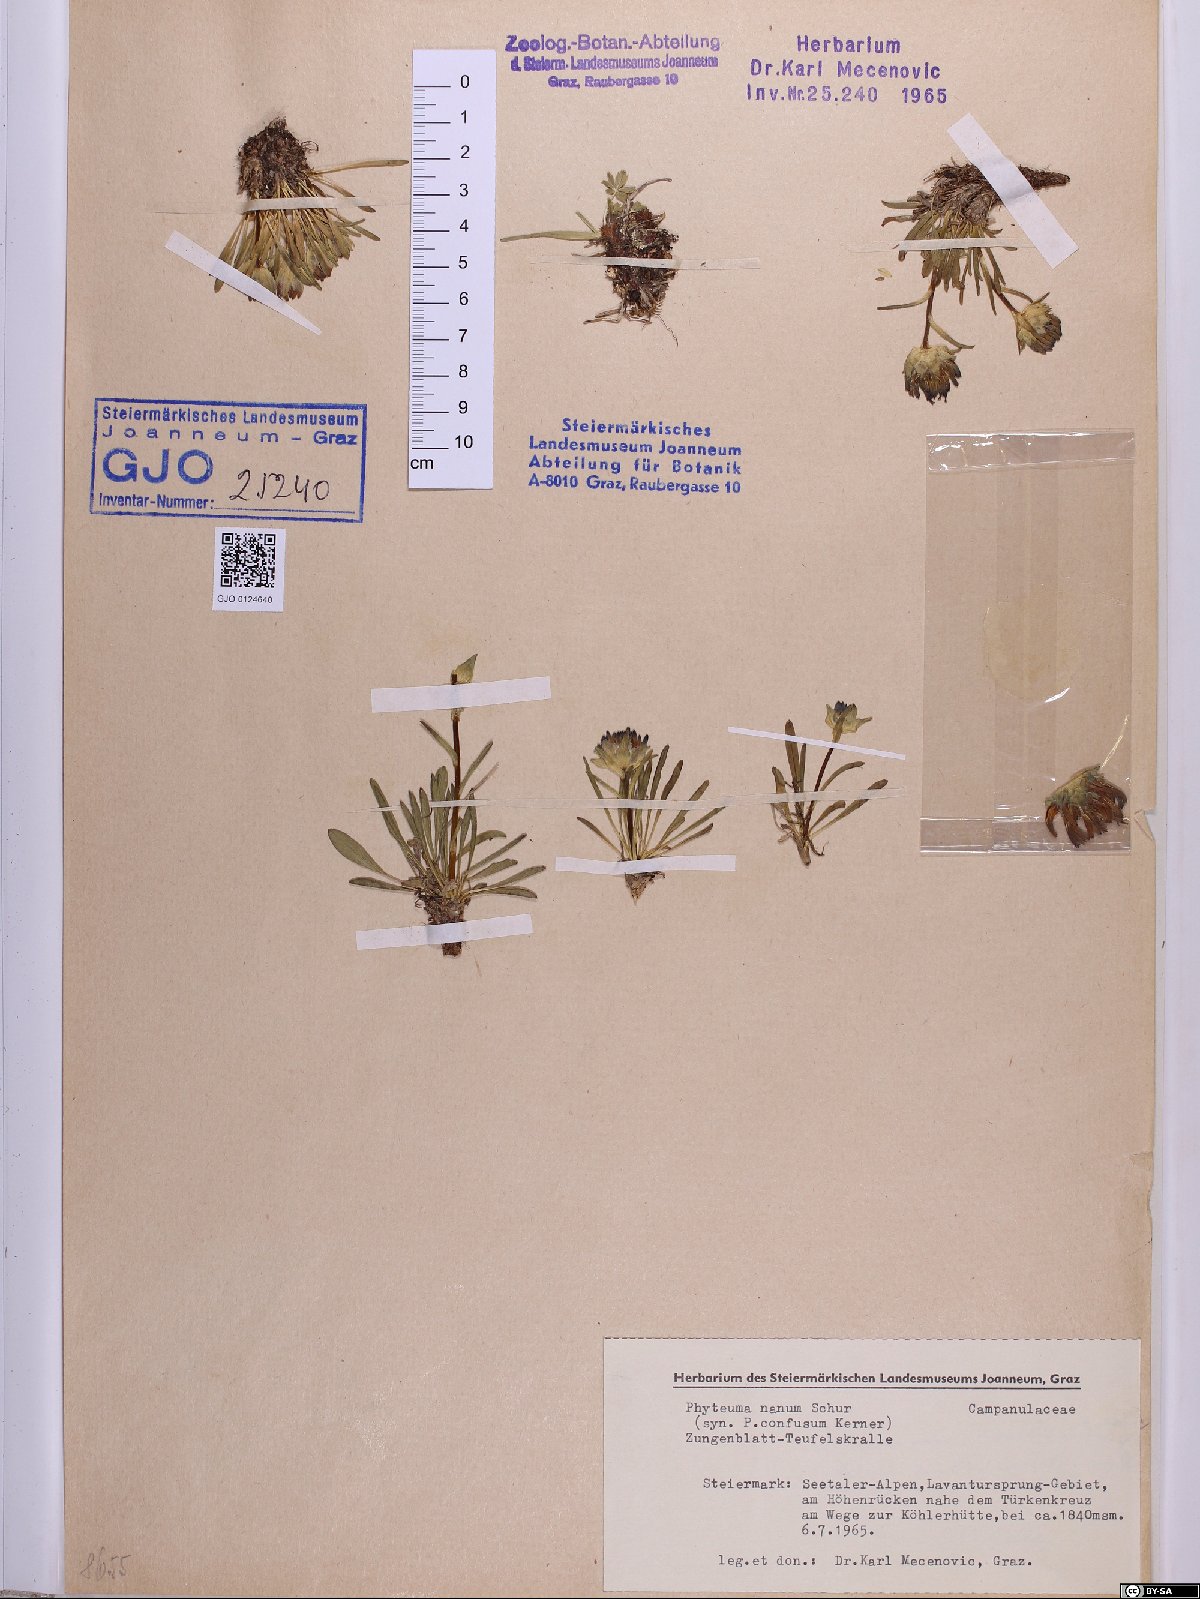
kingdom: Plantae
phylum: Tracheophyta
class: Magnoliopsida
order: Asterales
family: Campanulaceae
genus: Phyteuma
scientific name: Phyteuma globulariifolium
